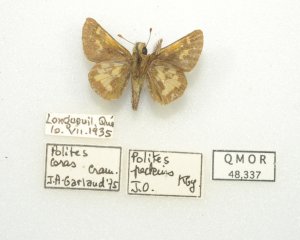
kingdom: Animalia
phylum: Arthropoda
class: Insecta
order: Lepidoptera
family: Hesperiidae
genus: Polites
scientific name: Polites coras
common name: Peck's Skipper
